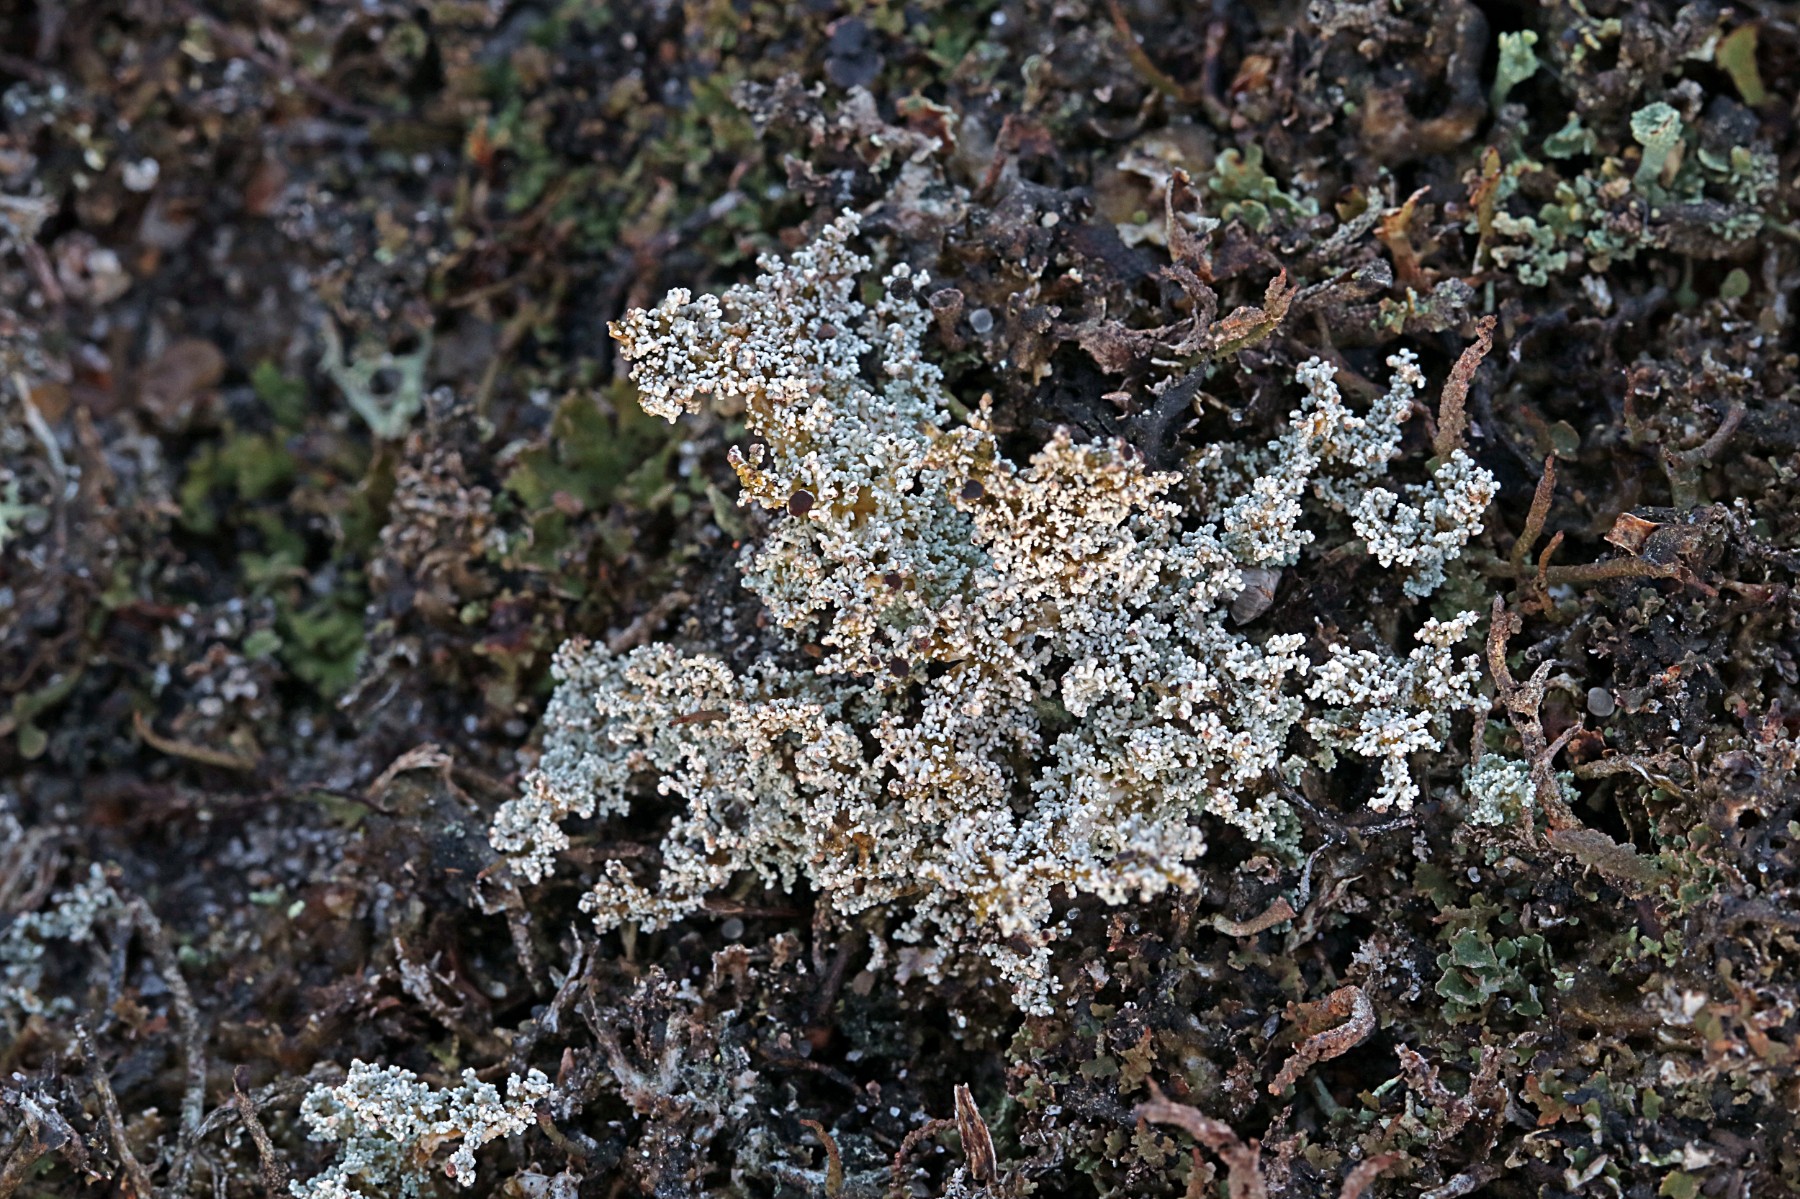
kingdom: Fungi
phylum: Ascomycota
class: Lecanoromycetes
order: Lecanorales
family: Stereocaulaceae
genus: Stereocaulon
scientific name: Stereocaulon saxatile
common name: klit-korallav
